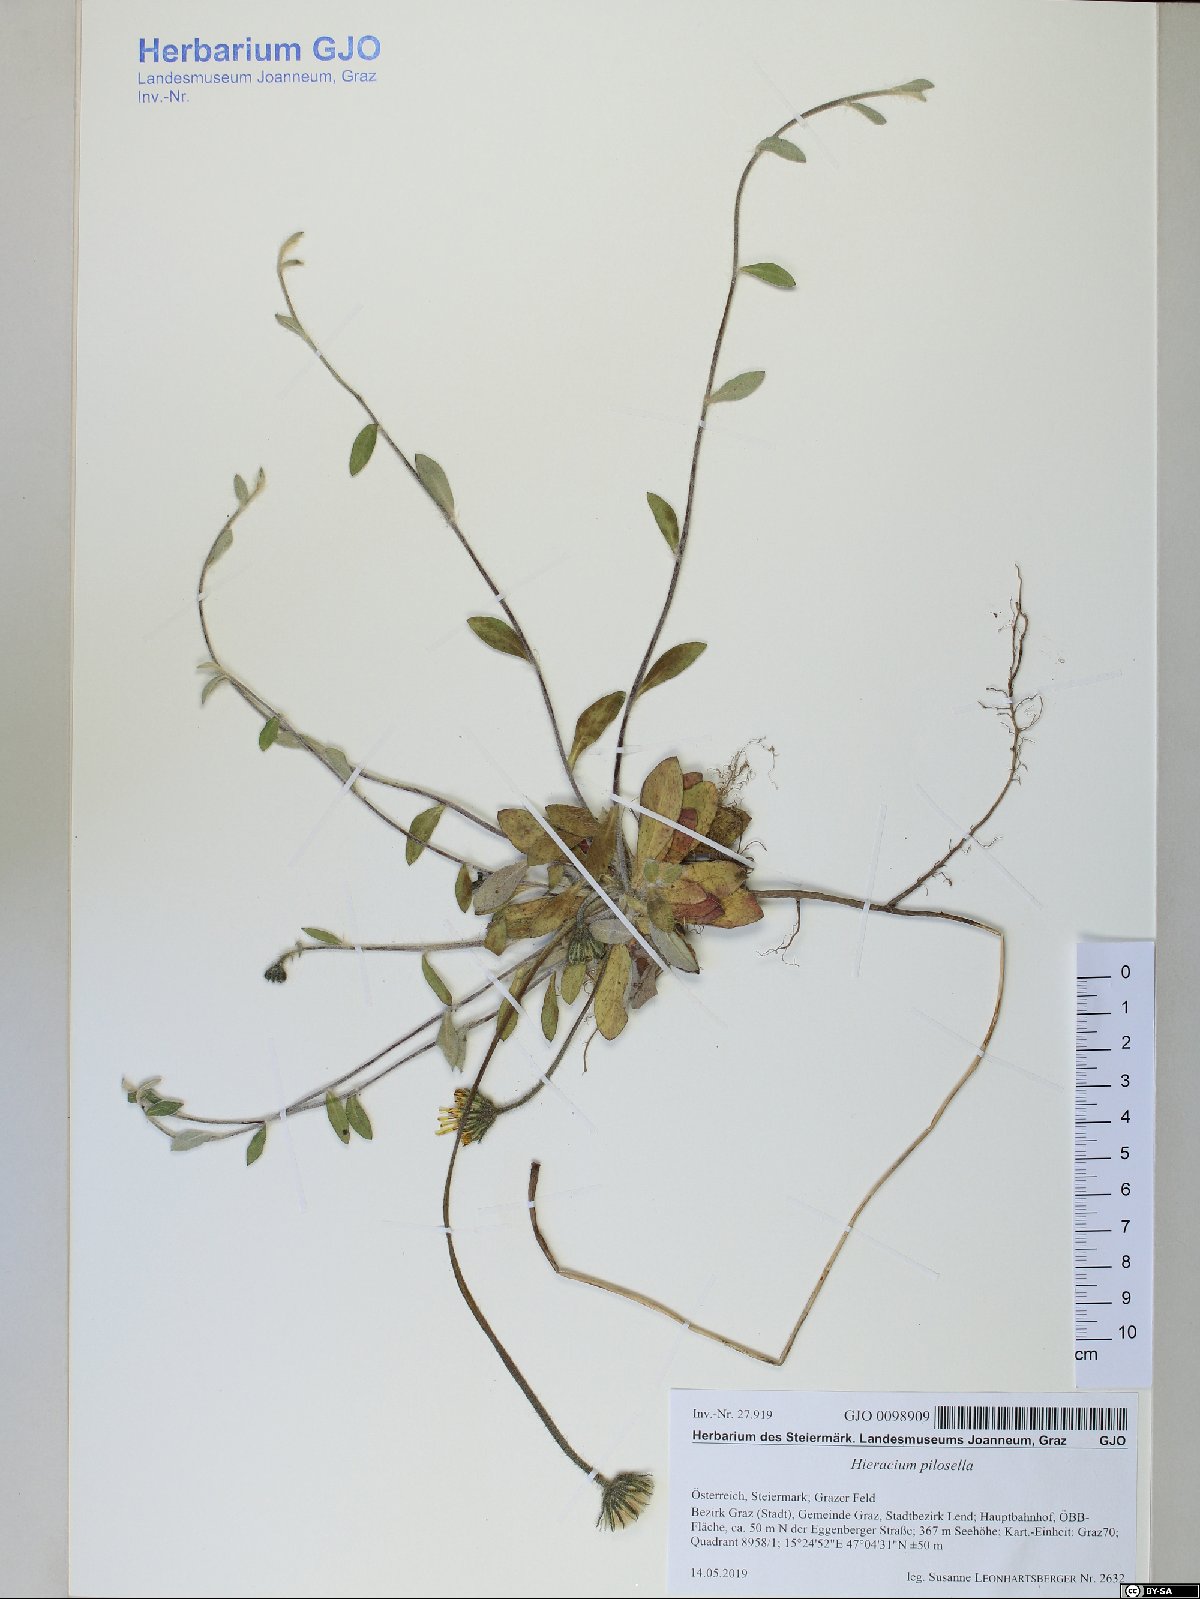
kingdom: Plantae
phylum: Tracheophyta
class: Magnoliopsida
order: Asterales
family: Asteraceae
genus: Pilosella
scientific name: Pilosella officinarum
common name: Mouse-ear hawkweed
